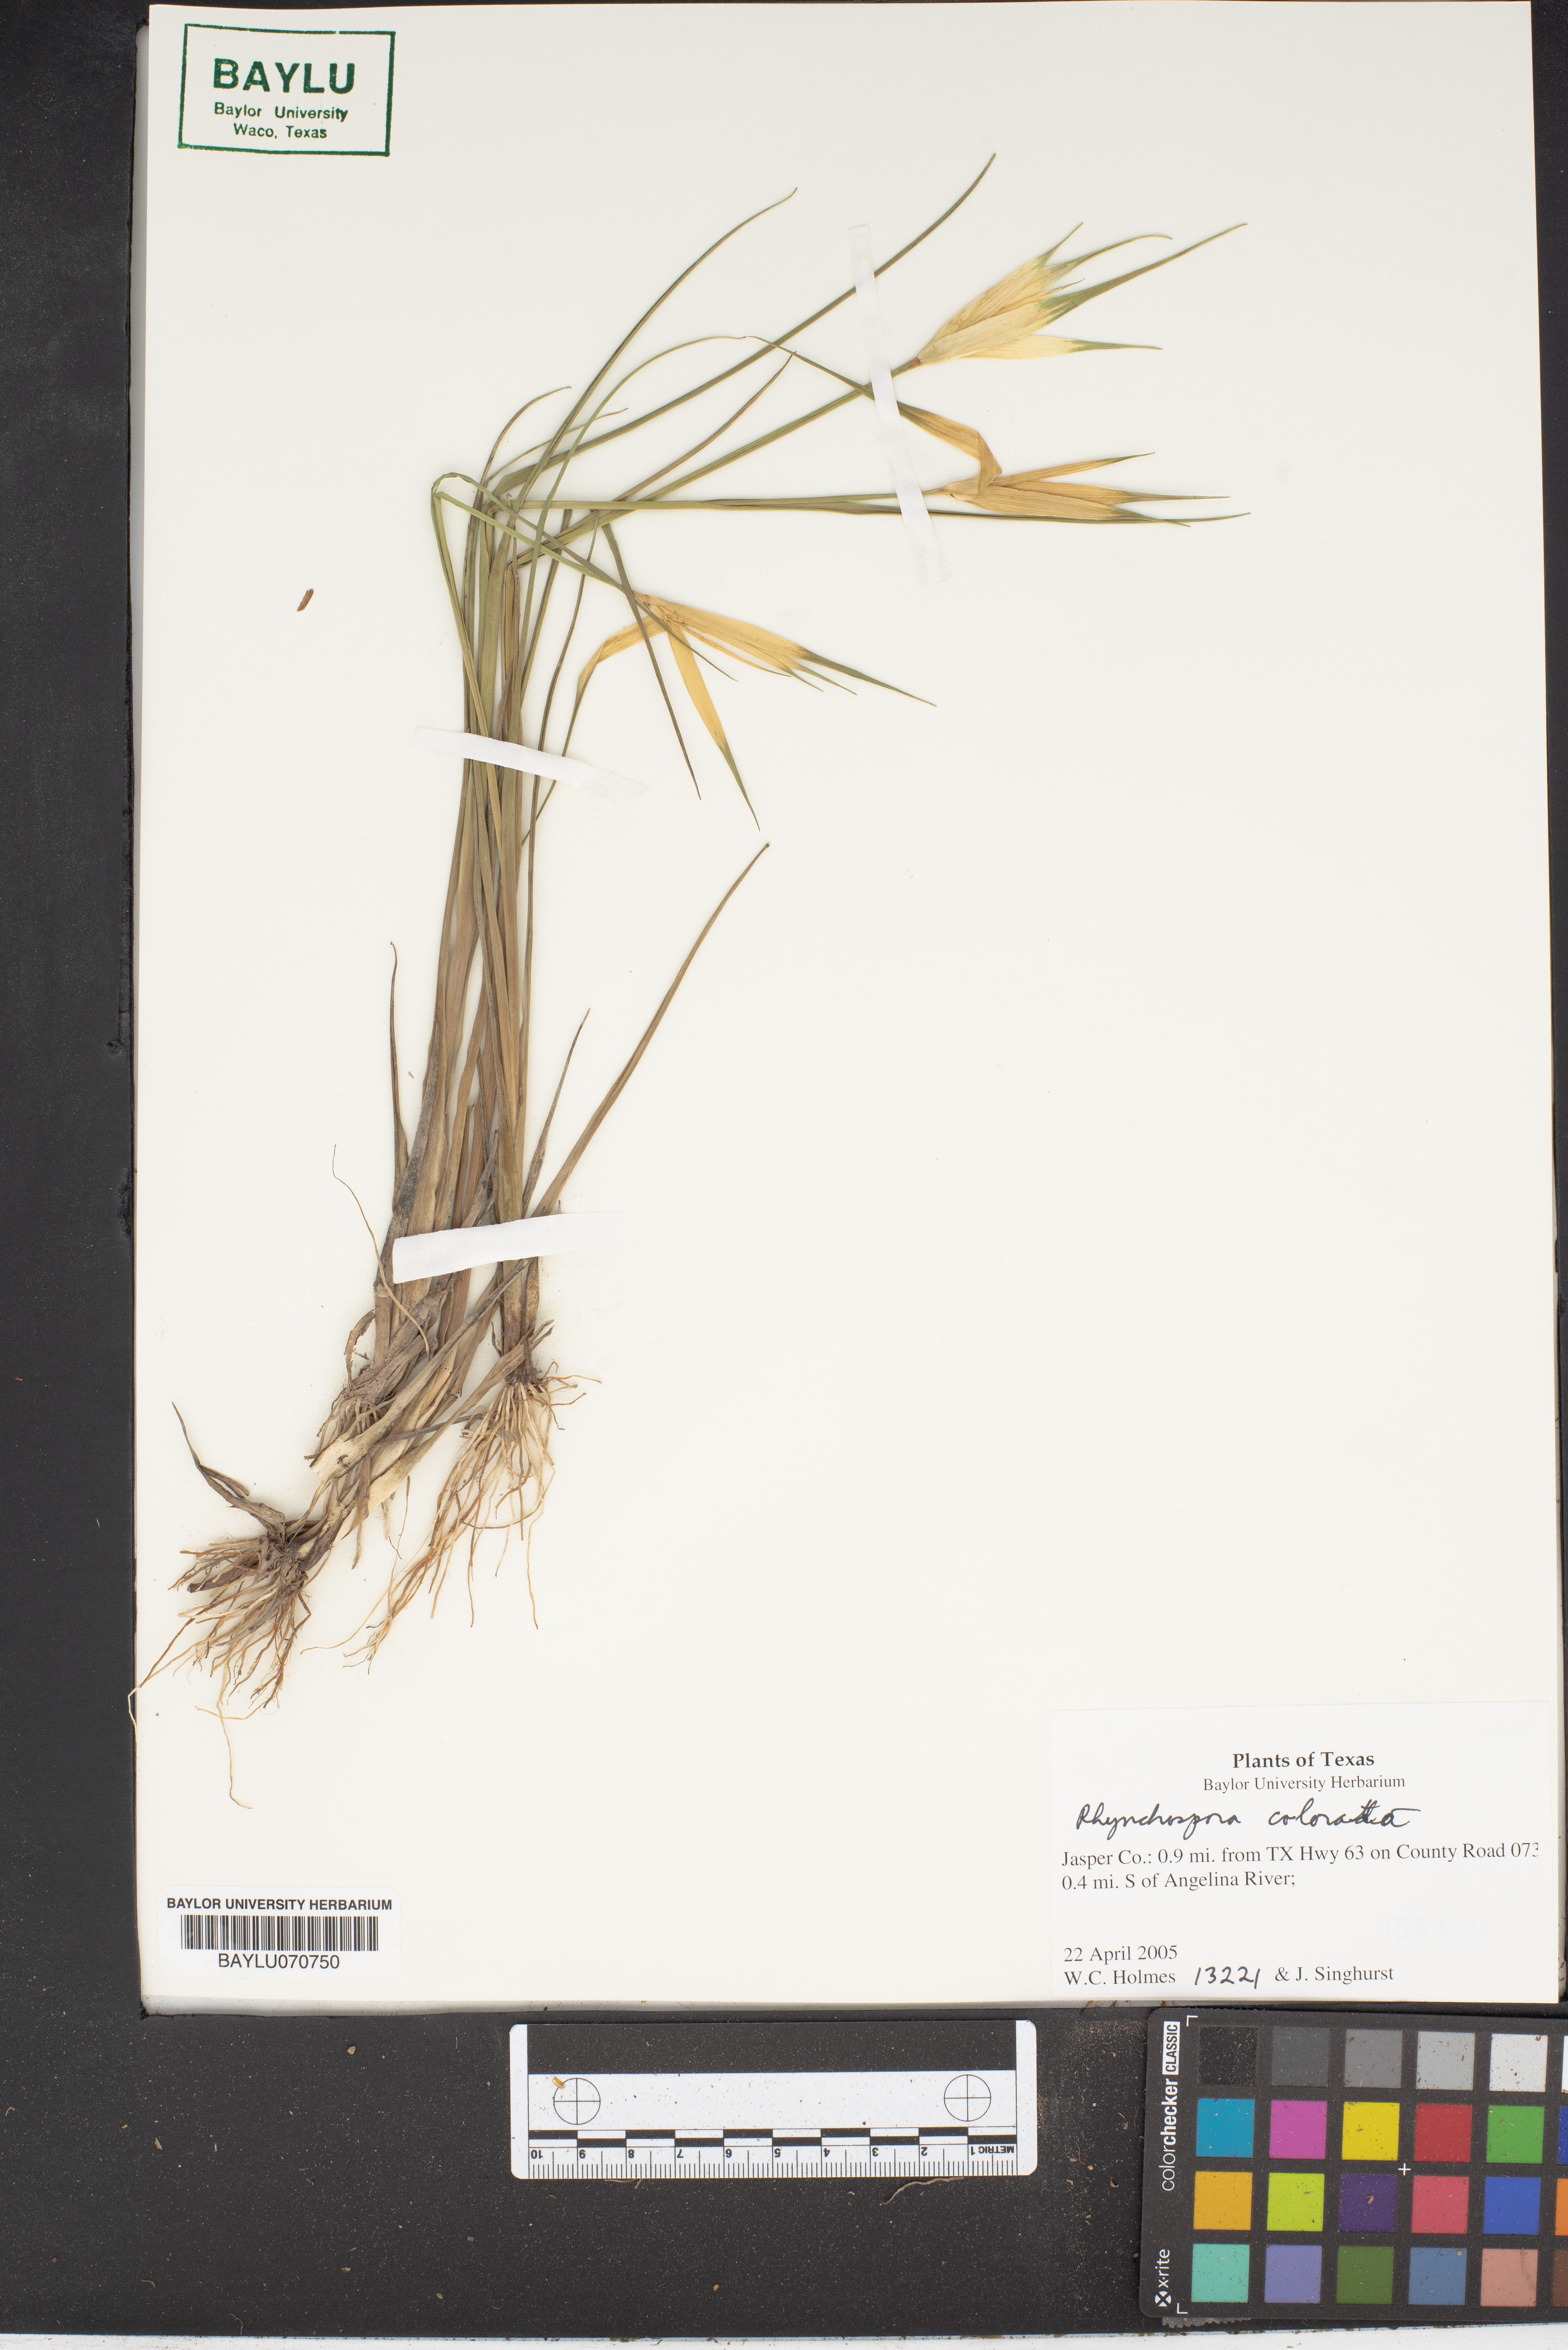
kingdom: Plantae
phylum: Tracheophyta
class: Liliopsida
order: Poales
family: Cyperaceae
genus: Rhynchospora
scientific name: Rhynchospora colorata
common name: Star sedge
